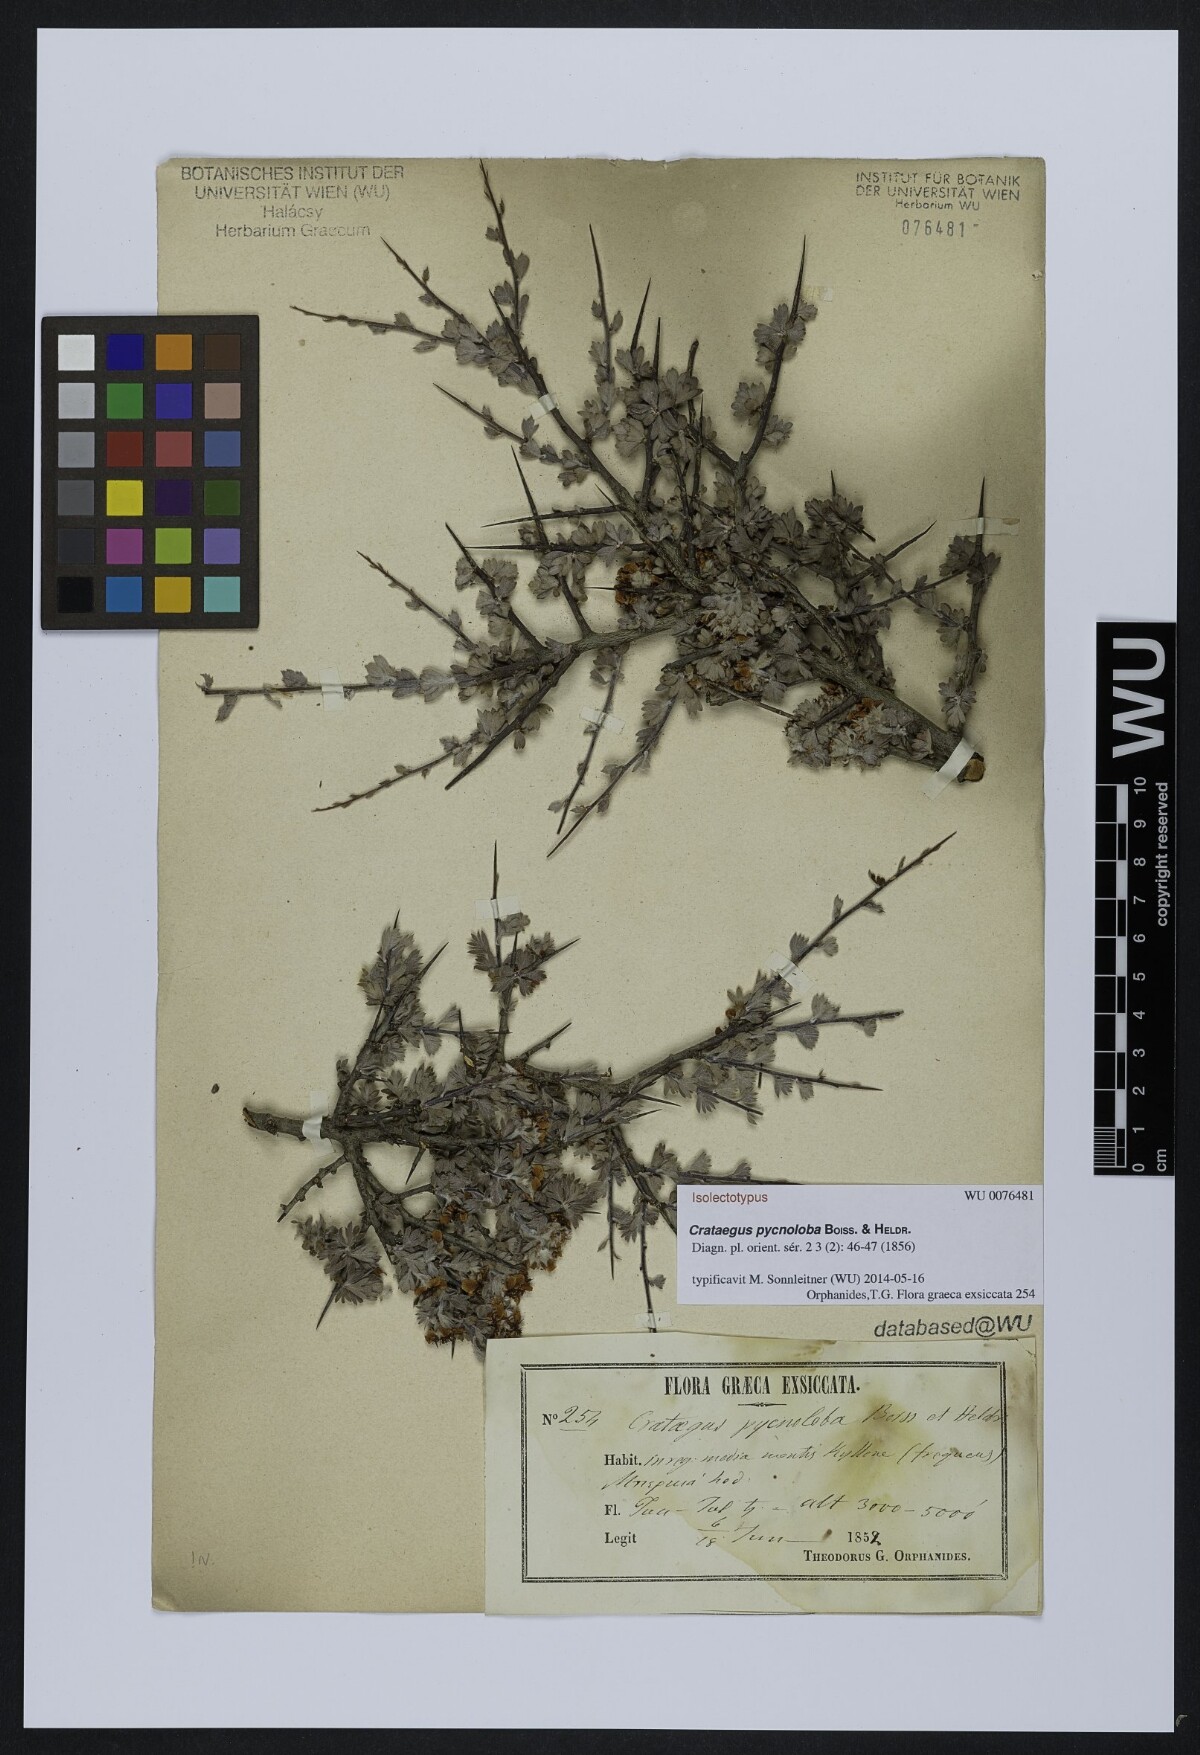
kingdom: Plantae
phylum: Tracheophyta
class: Magnoliopsida
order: Rosales
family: Rosaceae
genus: Crataegus
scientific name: Crataegus pycnoloba
